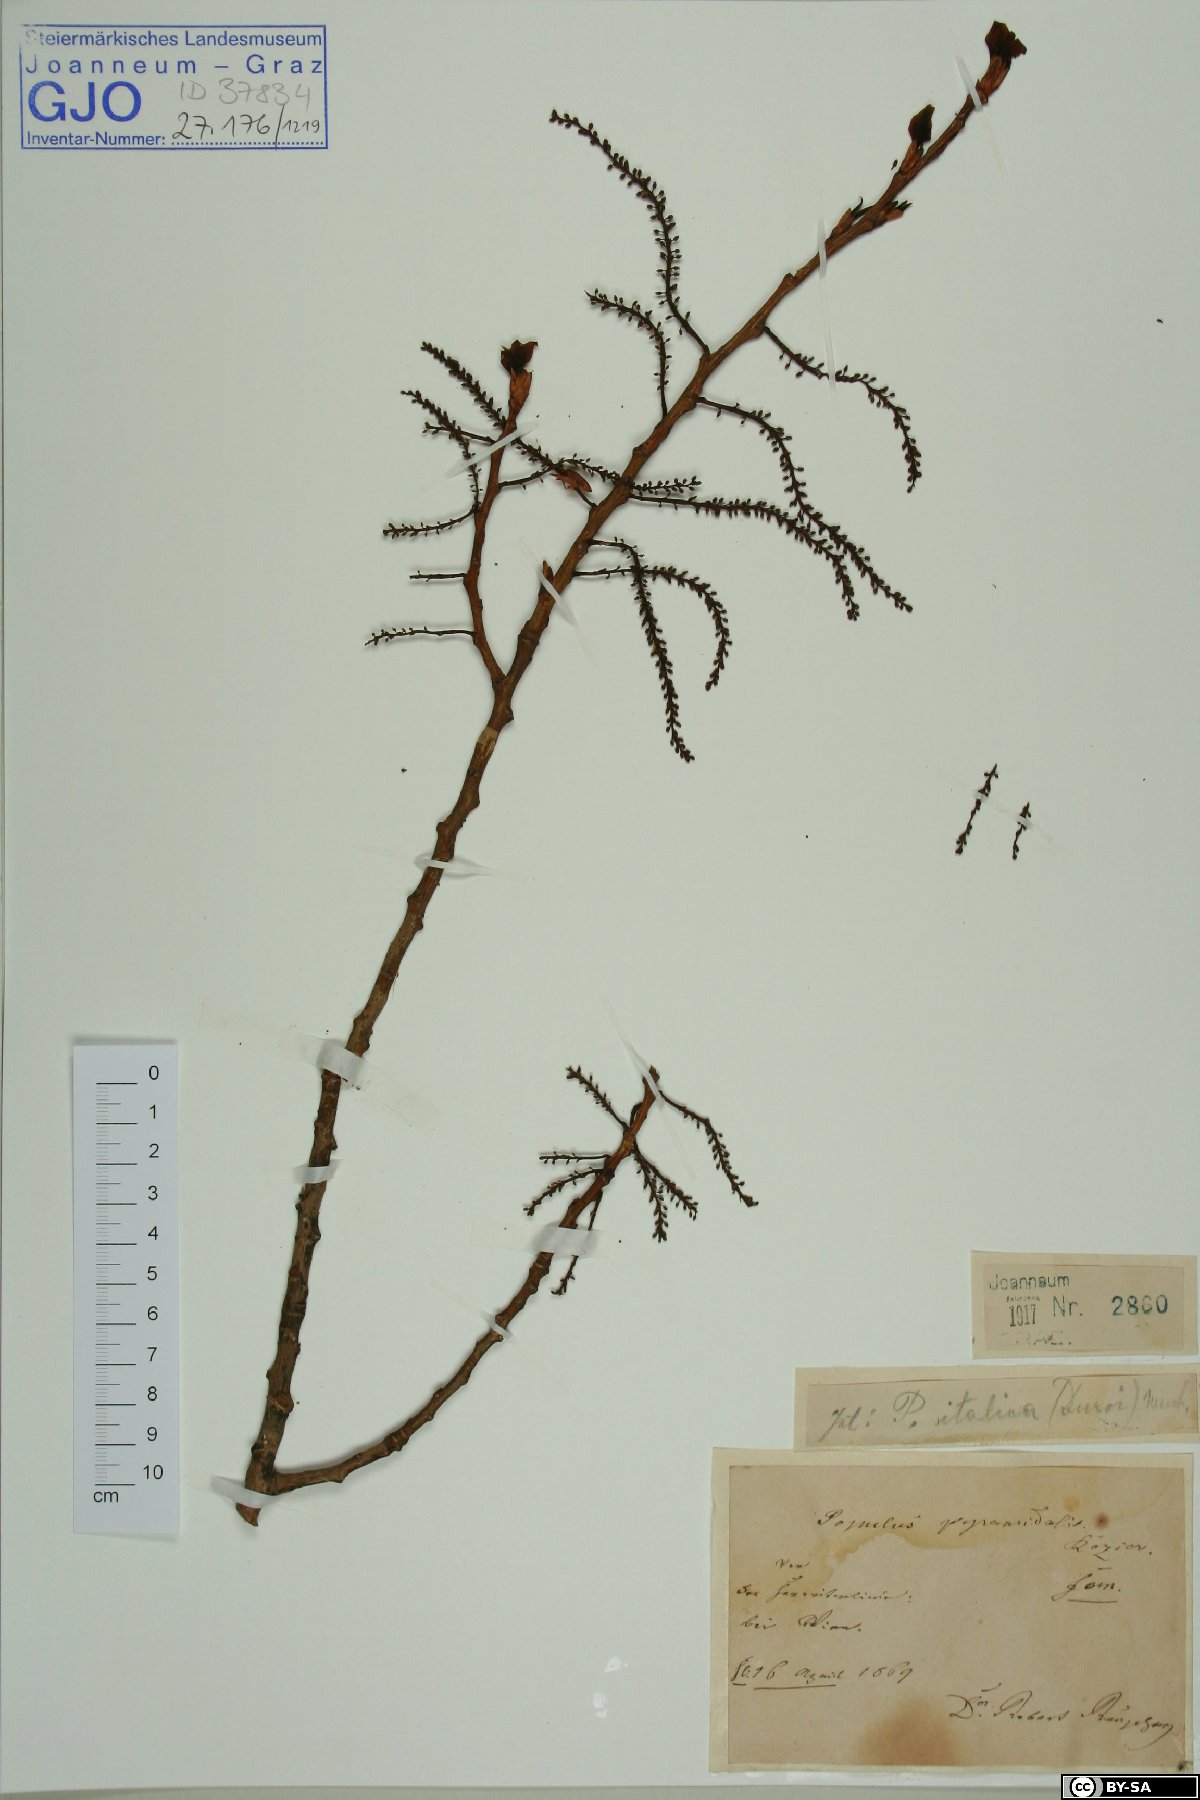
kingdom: Plantae
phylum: Tracheophyta
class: Magnoliopsida
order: Malpighiales
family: Salicaceae
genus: Populus
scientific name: Populus nigra
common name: Black poplar
